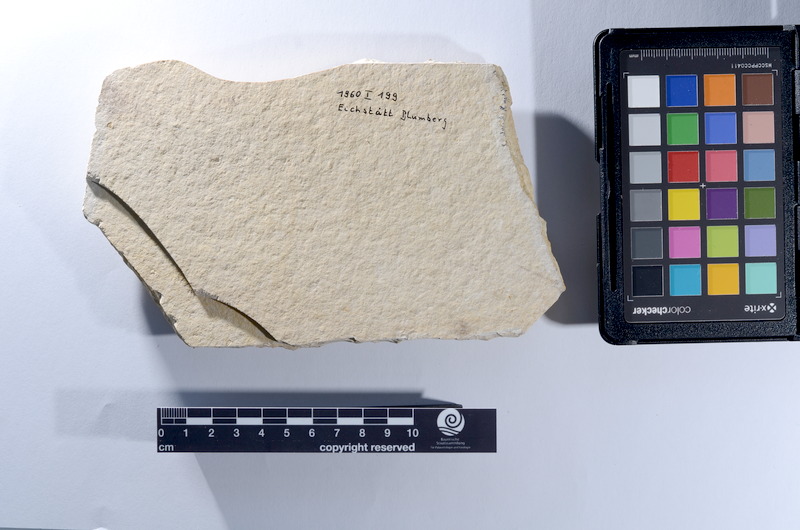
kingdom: Animalia
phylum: Chordata
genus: Thrissops
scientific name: Thrissops
